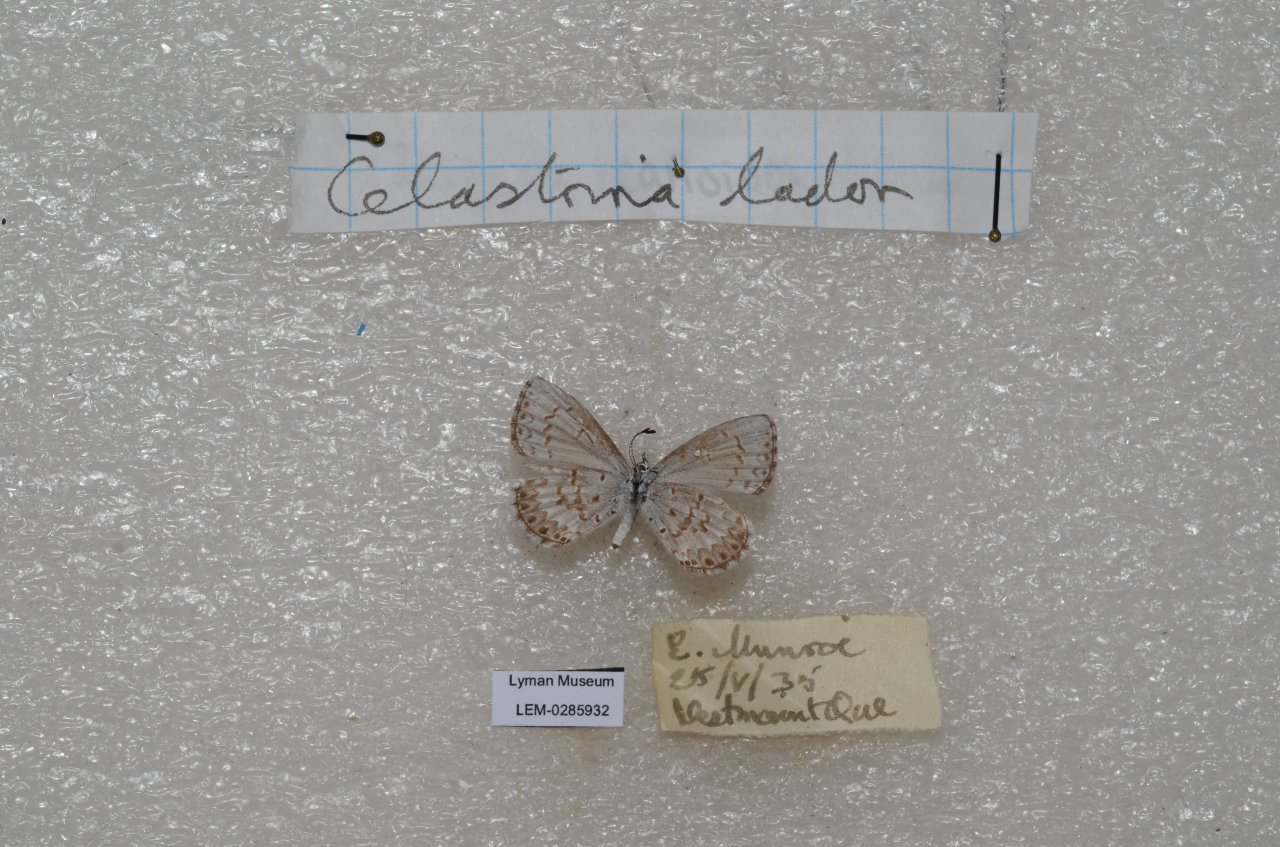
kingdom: Animalia
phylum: Arthropoda
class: Insecta
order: Lepidoptera
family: Lycaenidae
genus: Celastrina
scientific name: Celastrina lucia
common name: Northern Spring Azure
